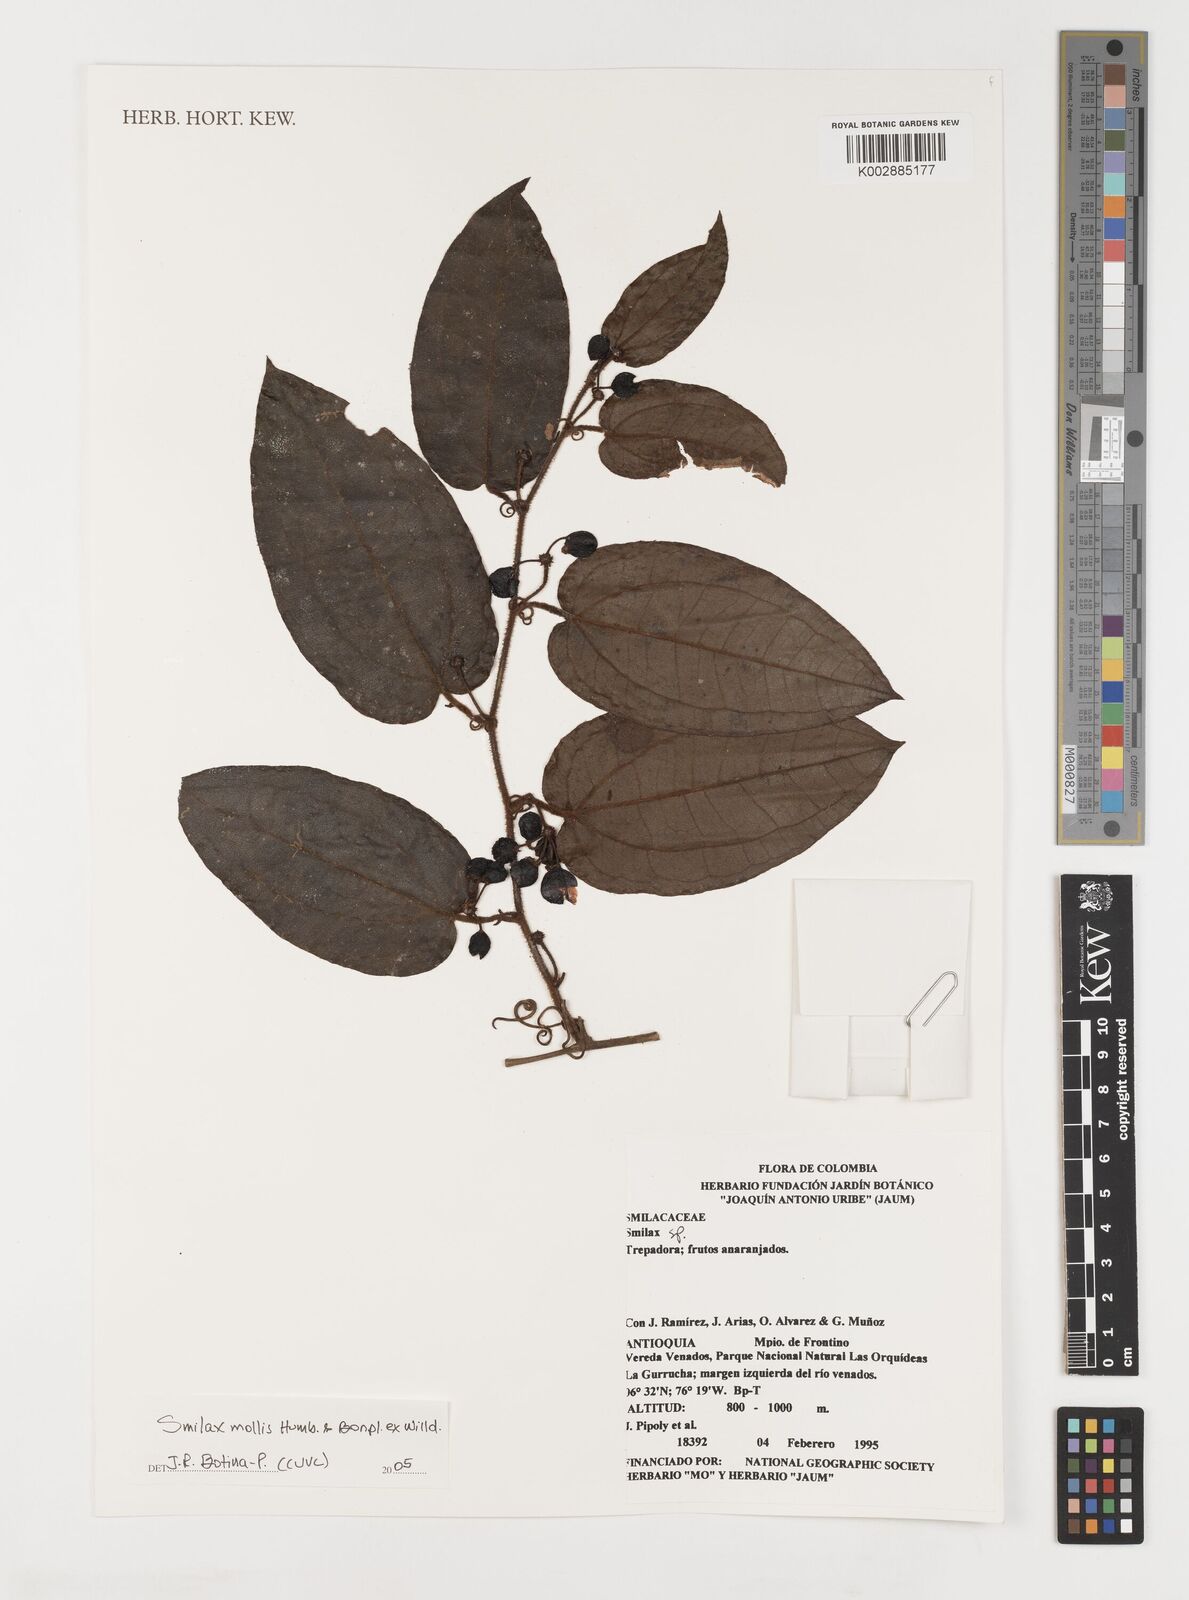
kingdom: Plantae
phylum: Tracheophyta
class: Liliopsida
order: Liliales
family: Smilacaceae
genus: Smilax
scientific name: Smilax mollis
